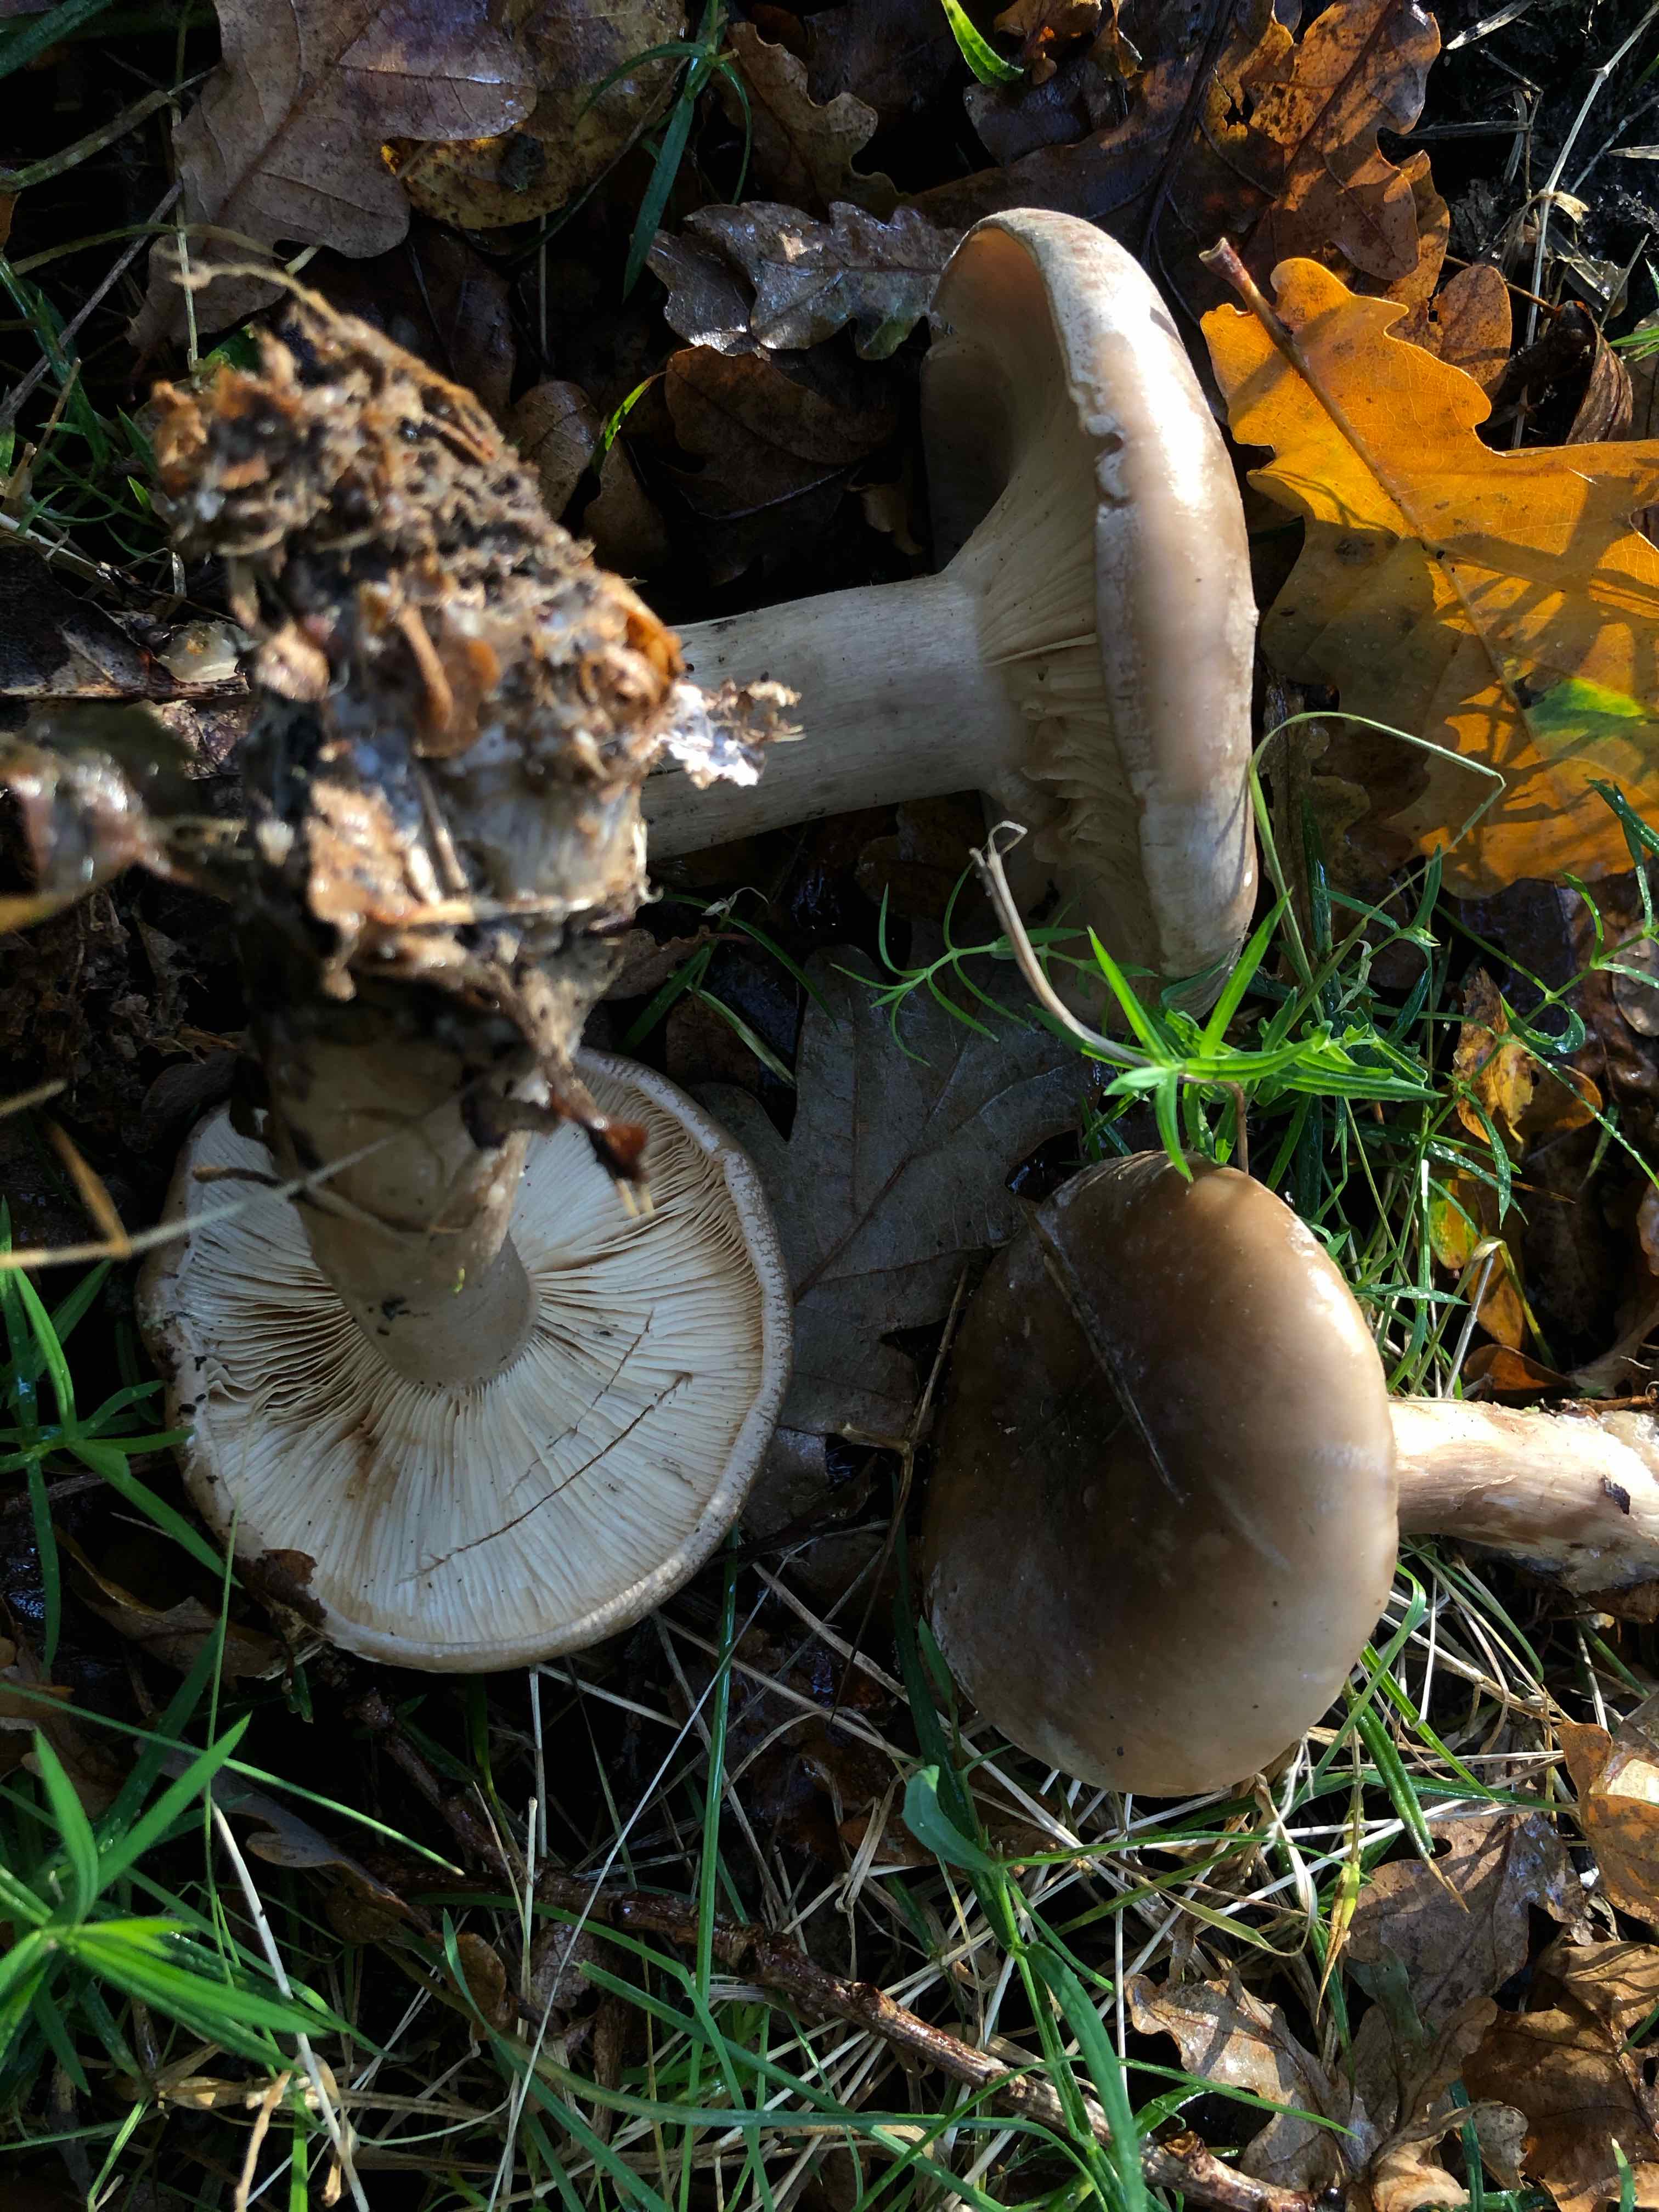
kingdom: Fungi
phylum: Basidiomycota
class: Agaricomycetes
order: Agaricales
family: Tricholomataceae
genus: Clitocybe
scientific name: Clitocybe nebularis
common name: tåge-tragthat
